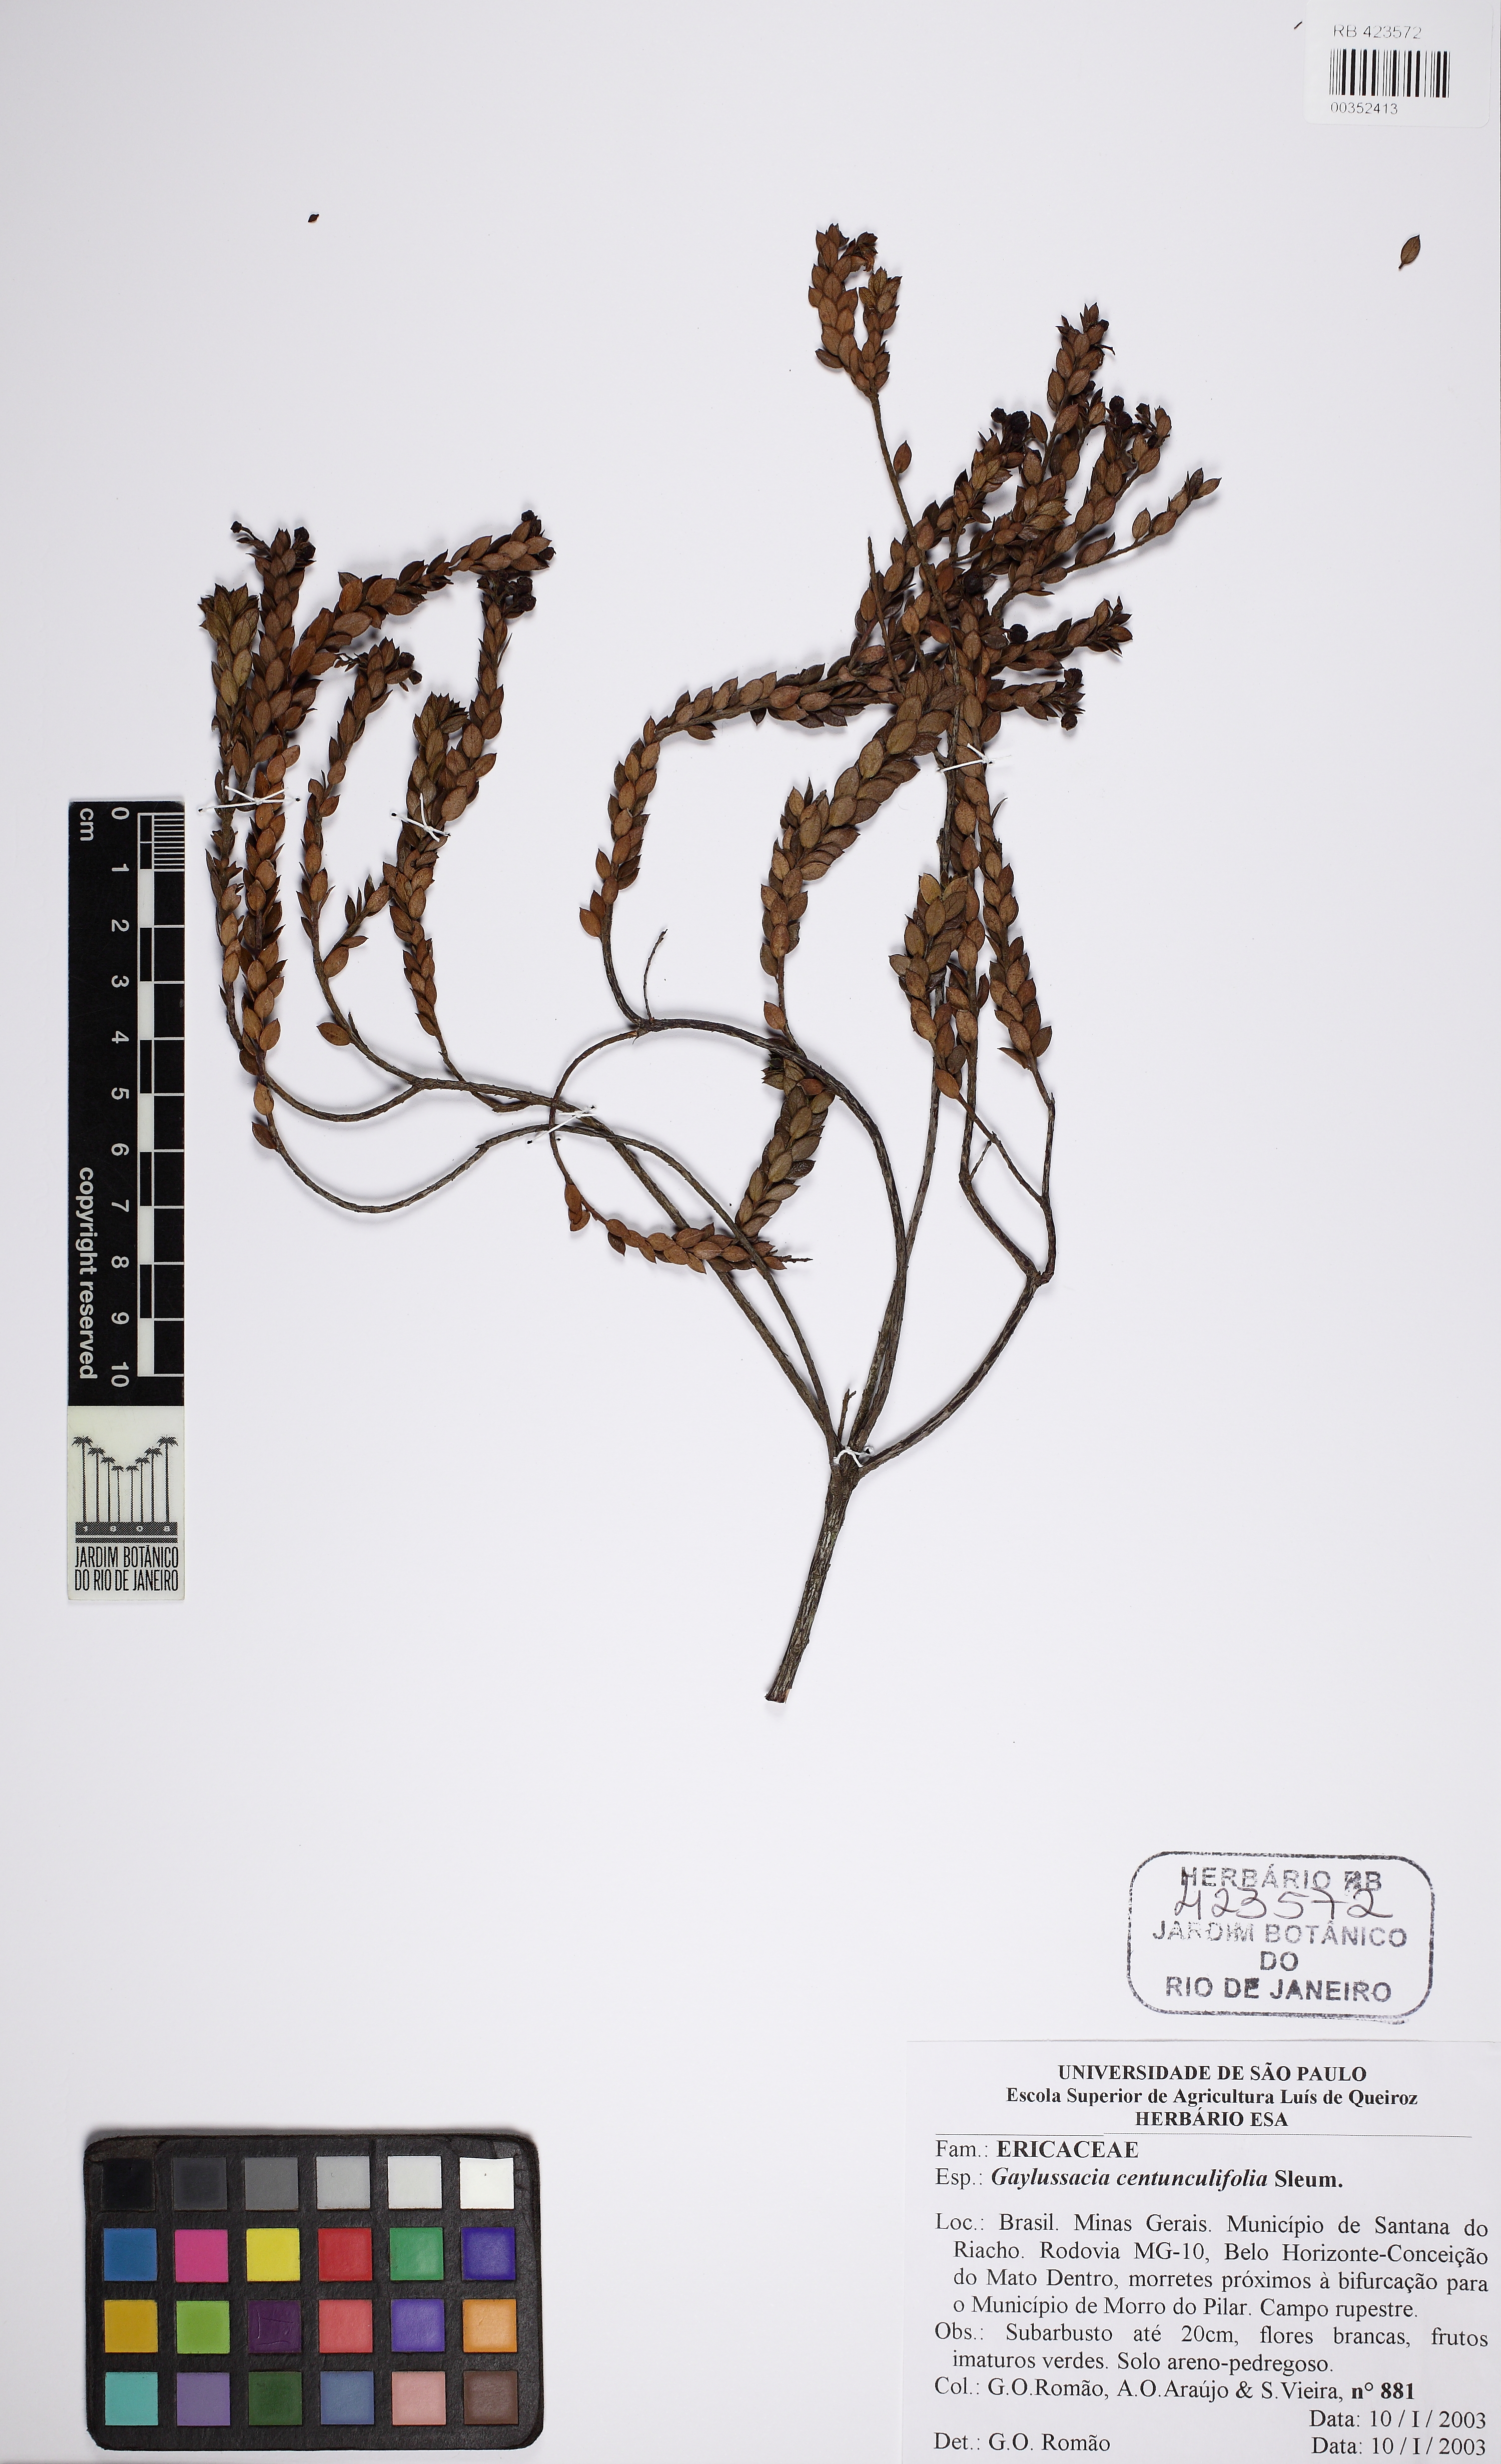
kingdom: Plantae
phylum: Tracheophyta
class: Magnoliopsida
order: Ericales
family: Ericaceae
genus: Gaylussacia
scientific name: Gaylussacia centunculifolia
